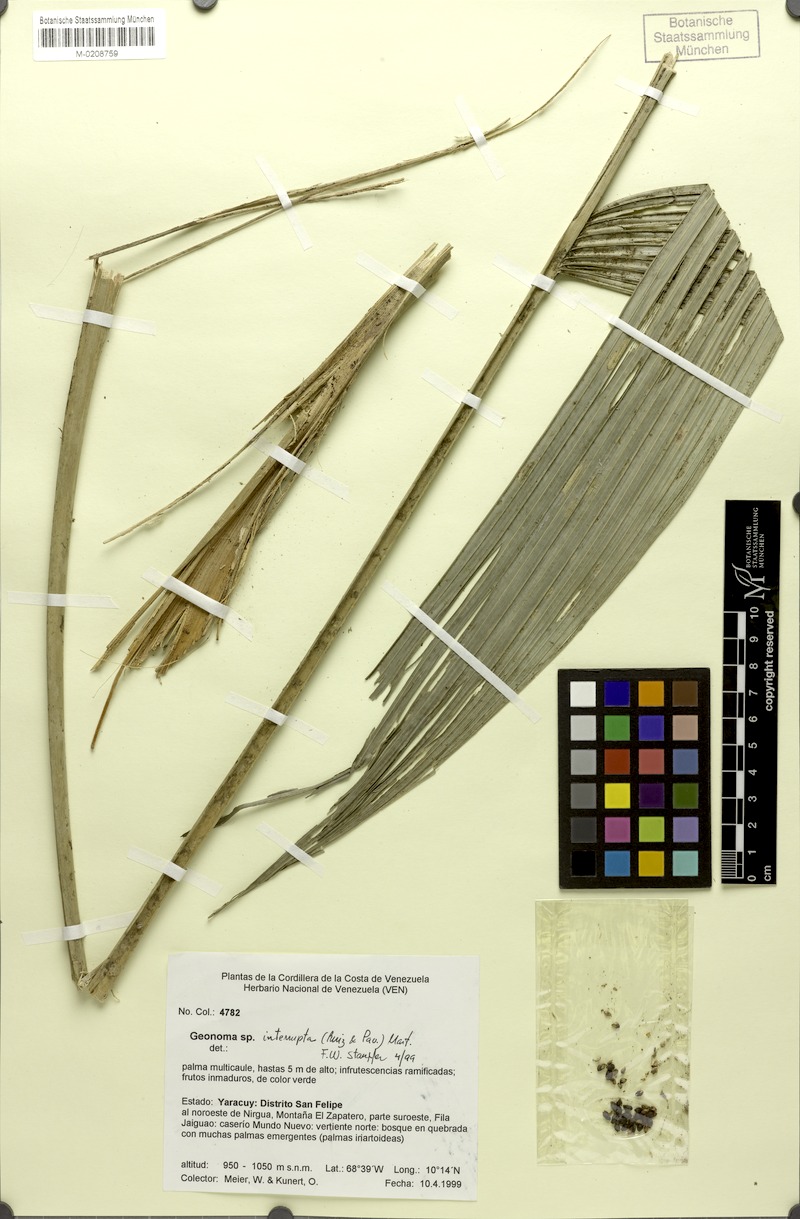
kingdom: Plantae
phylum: Tracheophyta
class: Liliopsida
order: Arecales
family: Arecaceae
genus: Geonoma
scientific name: Geonoma interrupta
